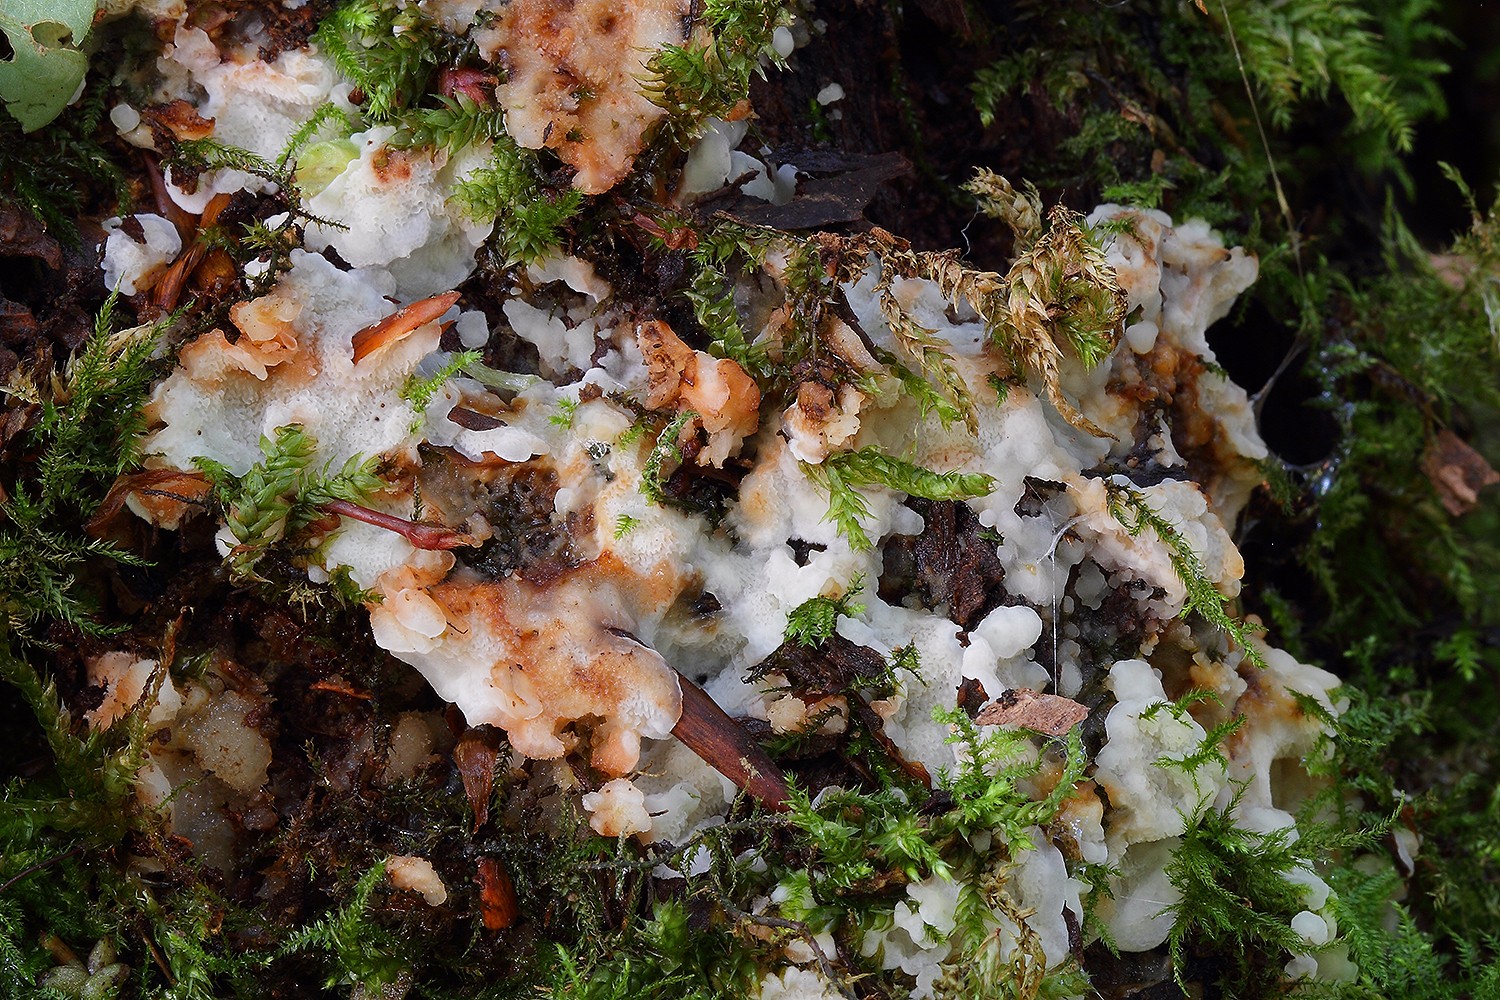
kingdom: Fungi
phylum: Basidiomycota
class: Agaricomycetes
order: Polyporales
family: Meripilaceae
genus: Rigidoporus
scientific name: Rigidoporus sanguinolentus
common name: blod-skorpeporesvamp
